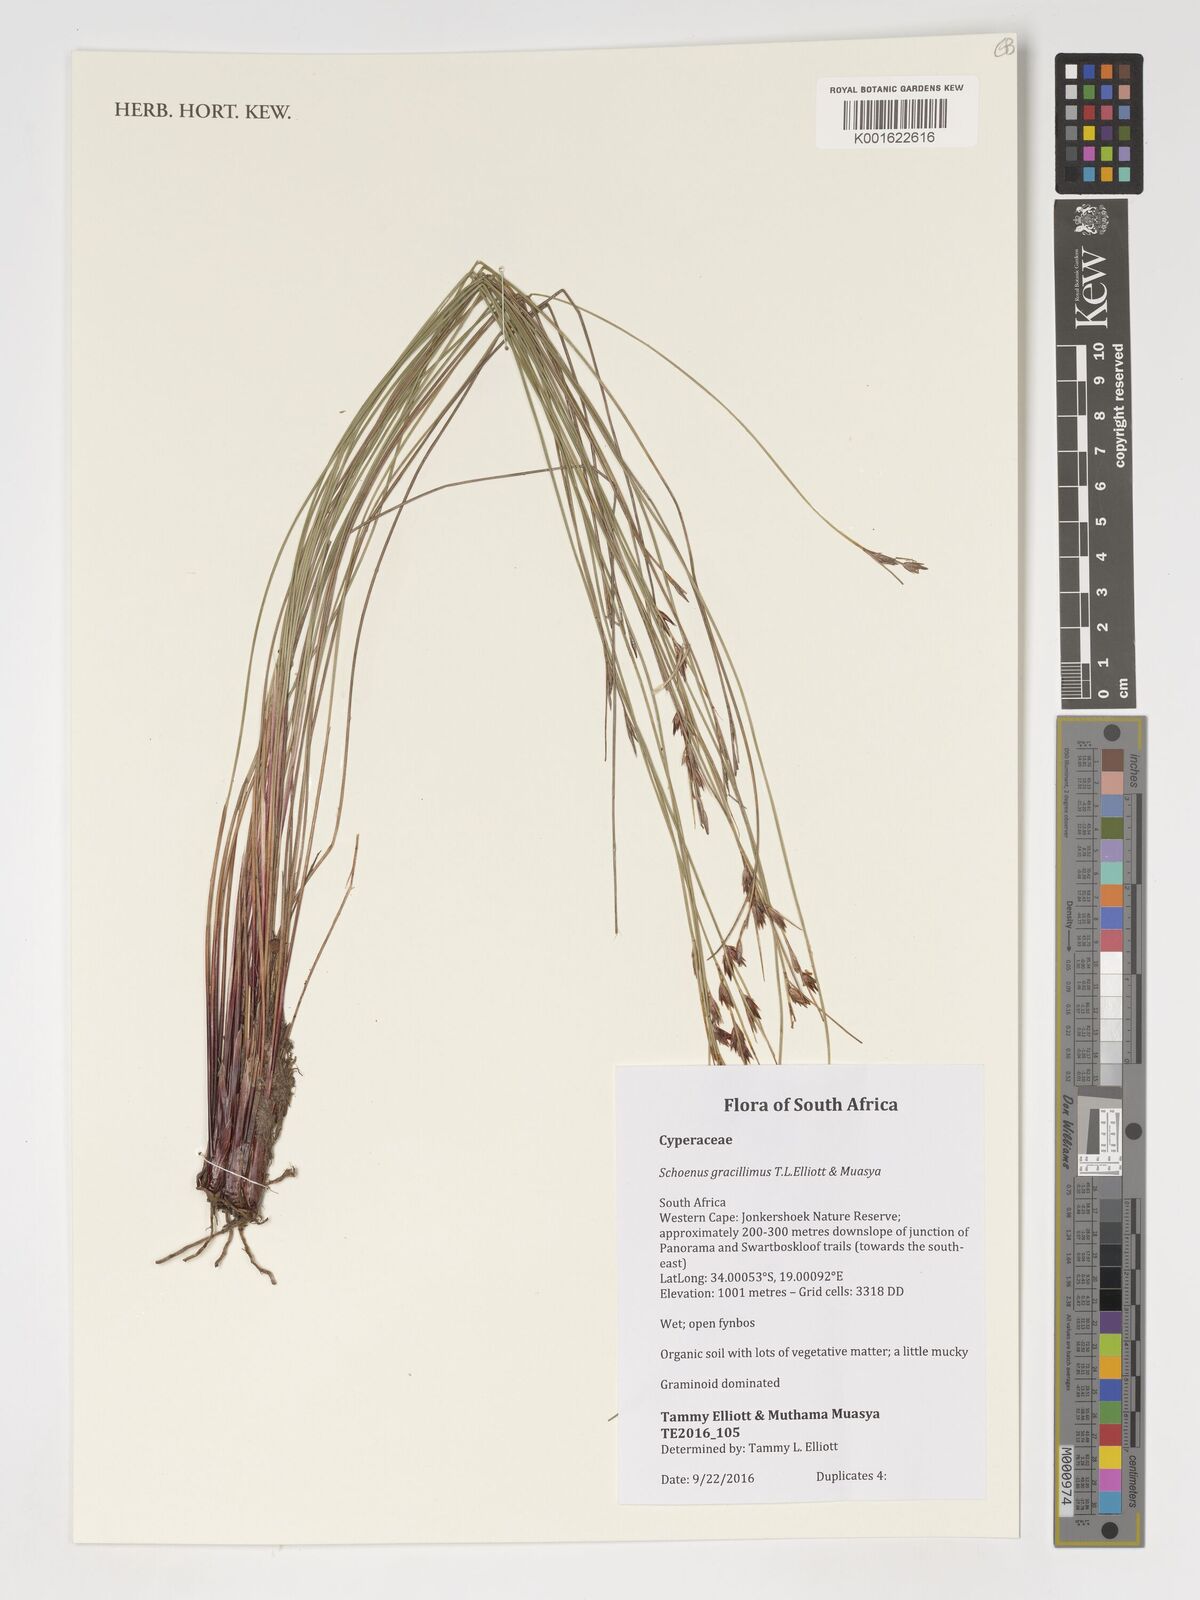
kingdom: Plantae
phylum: Tracheophyta
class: Liliopsida
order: Poales
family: Cyperaceae
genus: Schoenus
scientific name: Schoenus gracillimus
